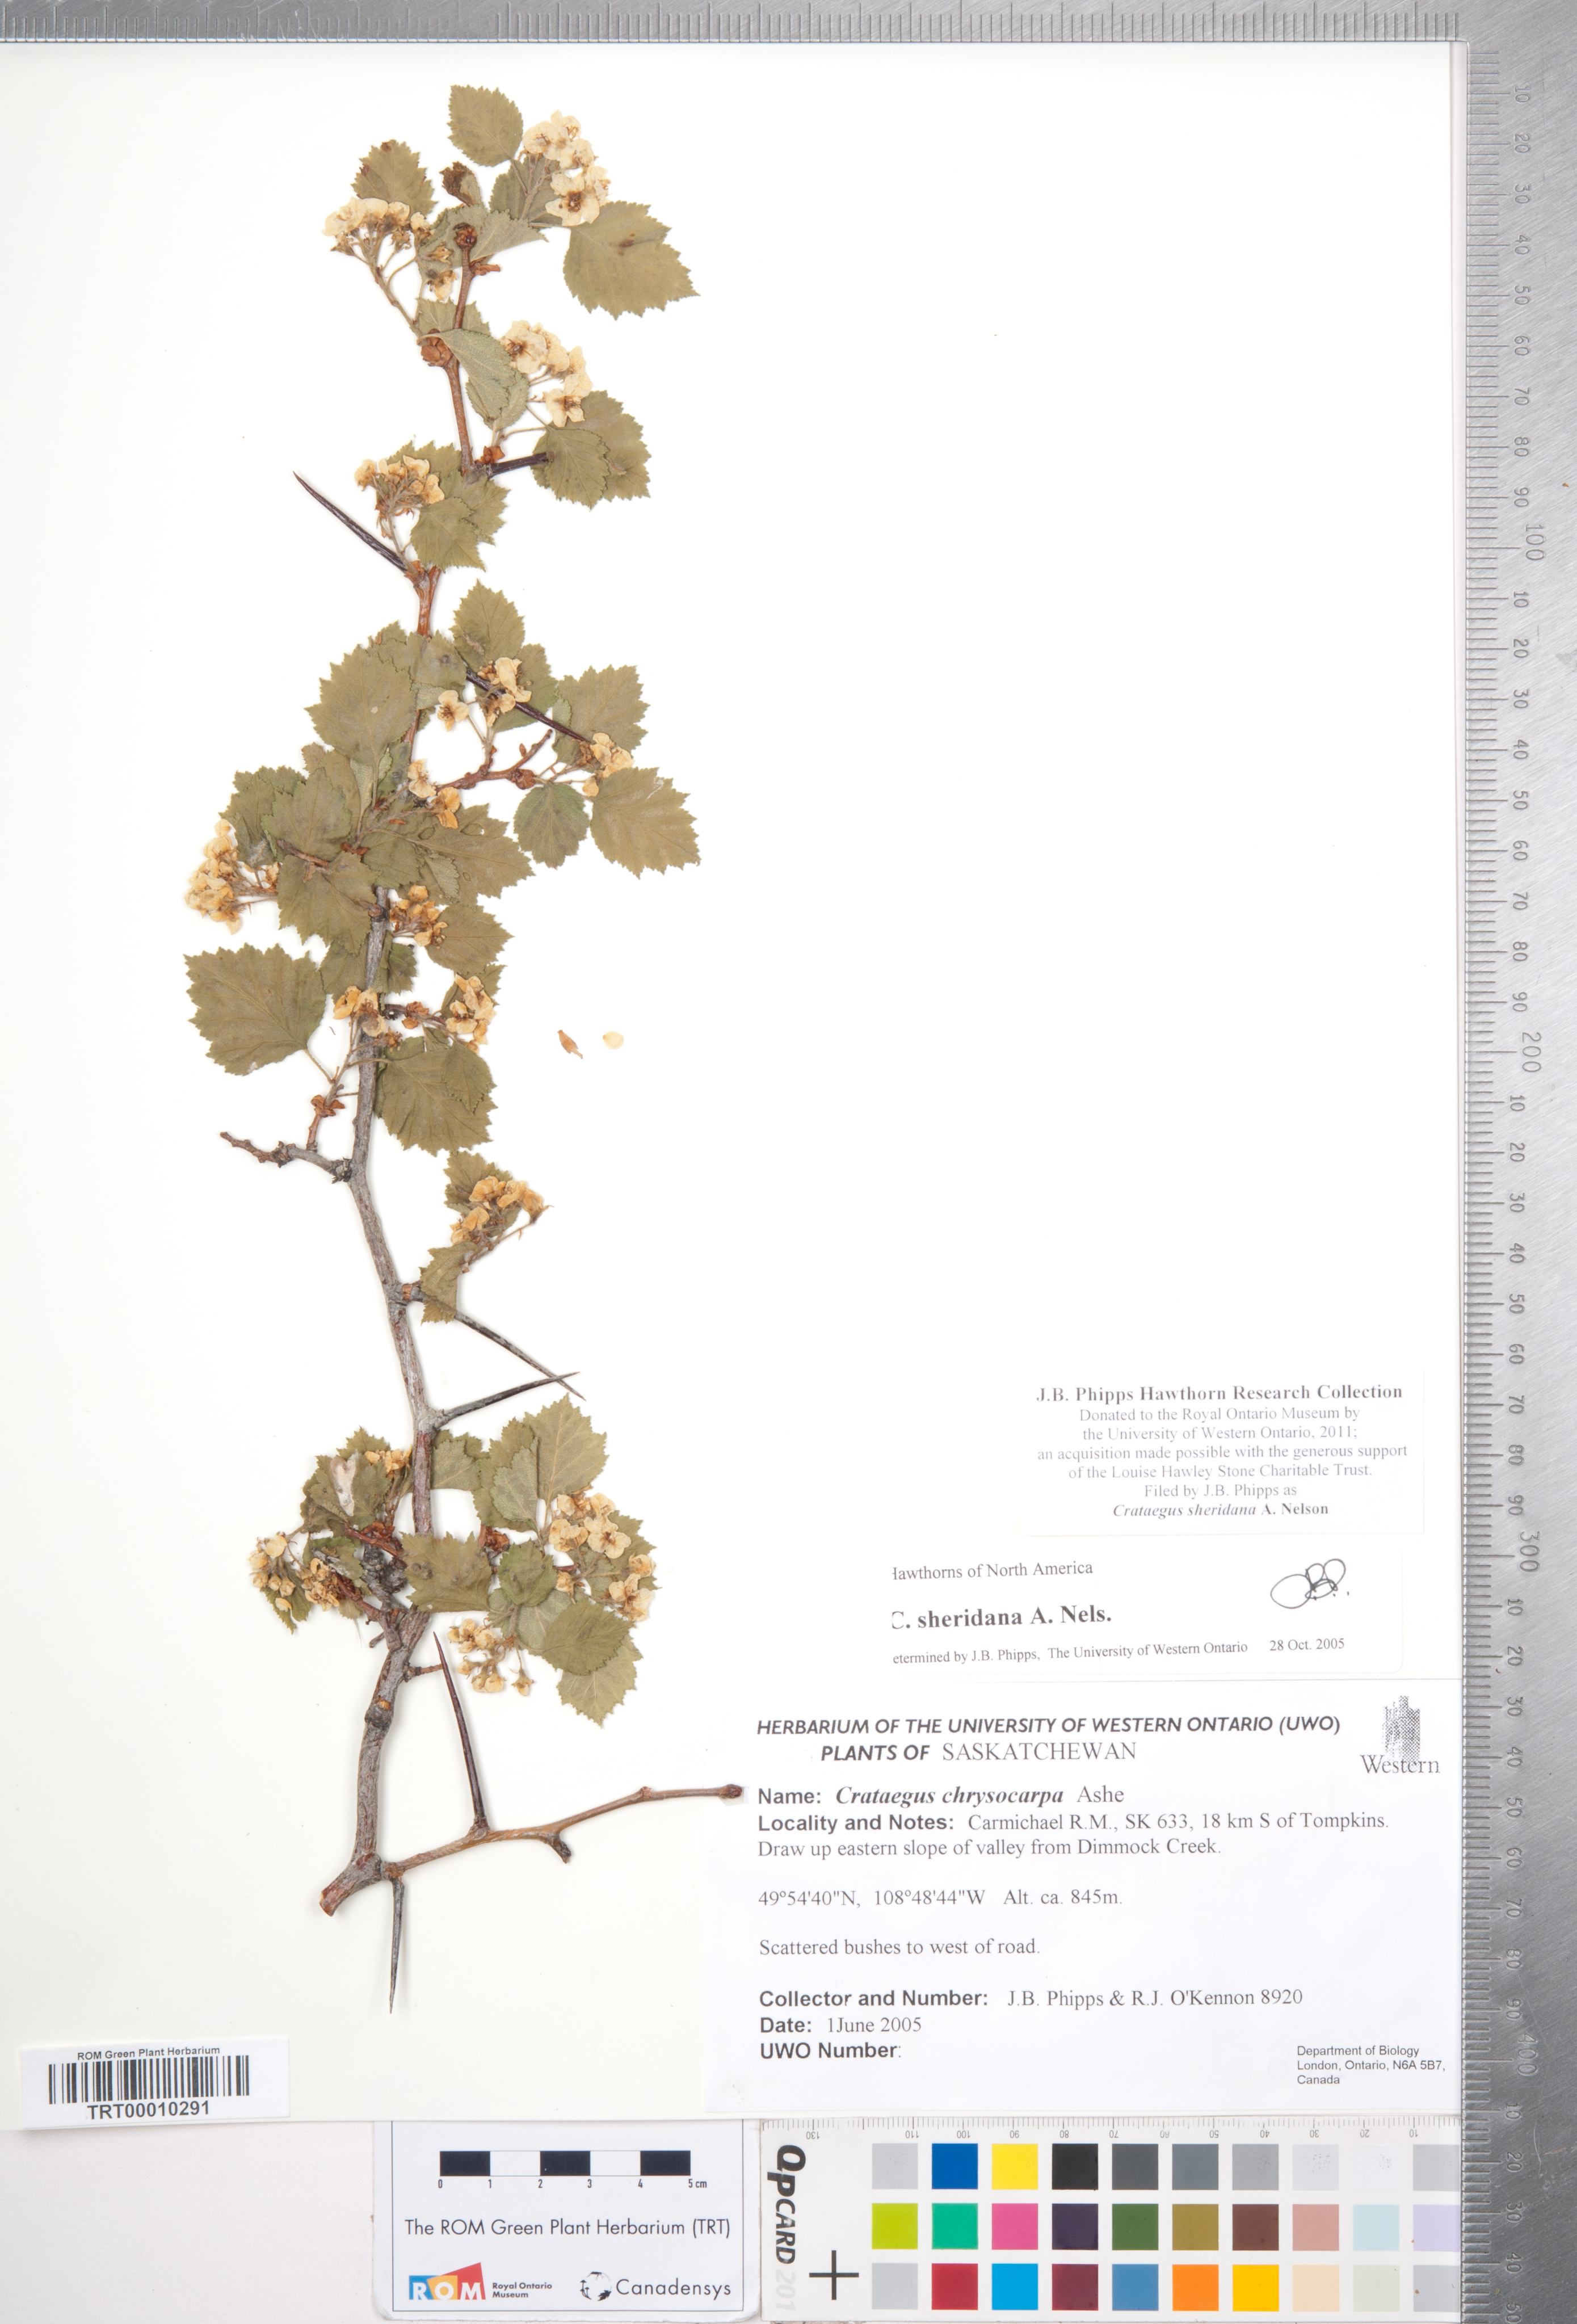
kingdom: Plantae
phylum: Tracheophyta
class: Magnoliopsida
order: Rosales
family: Rosaceae
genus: Crataegus
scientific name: Crataegus chrysocarpa
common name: Fire-berry hawthorn
